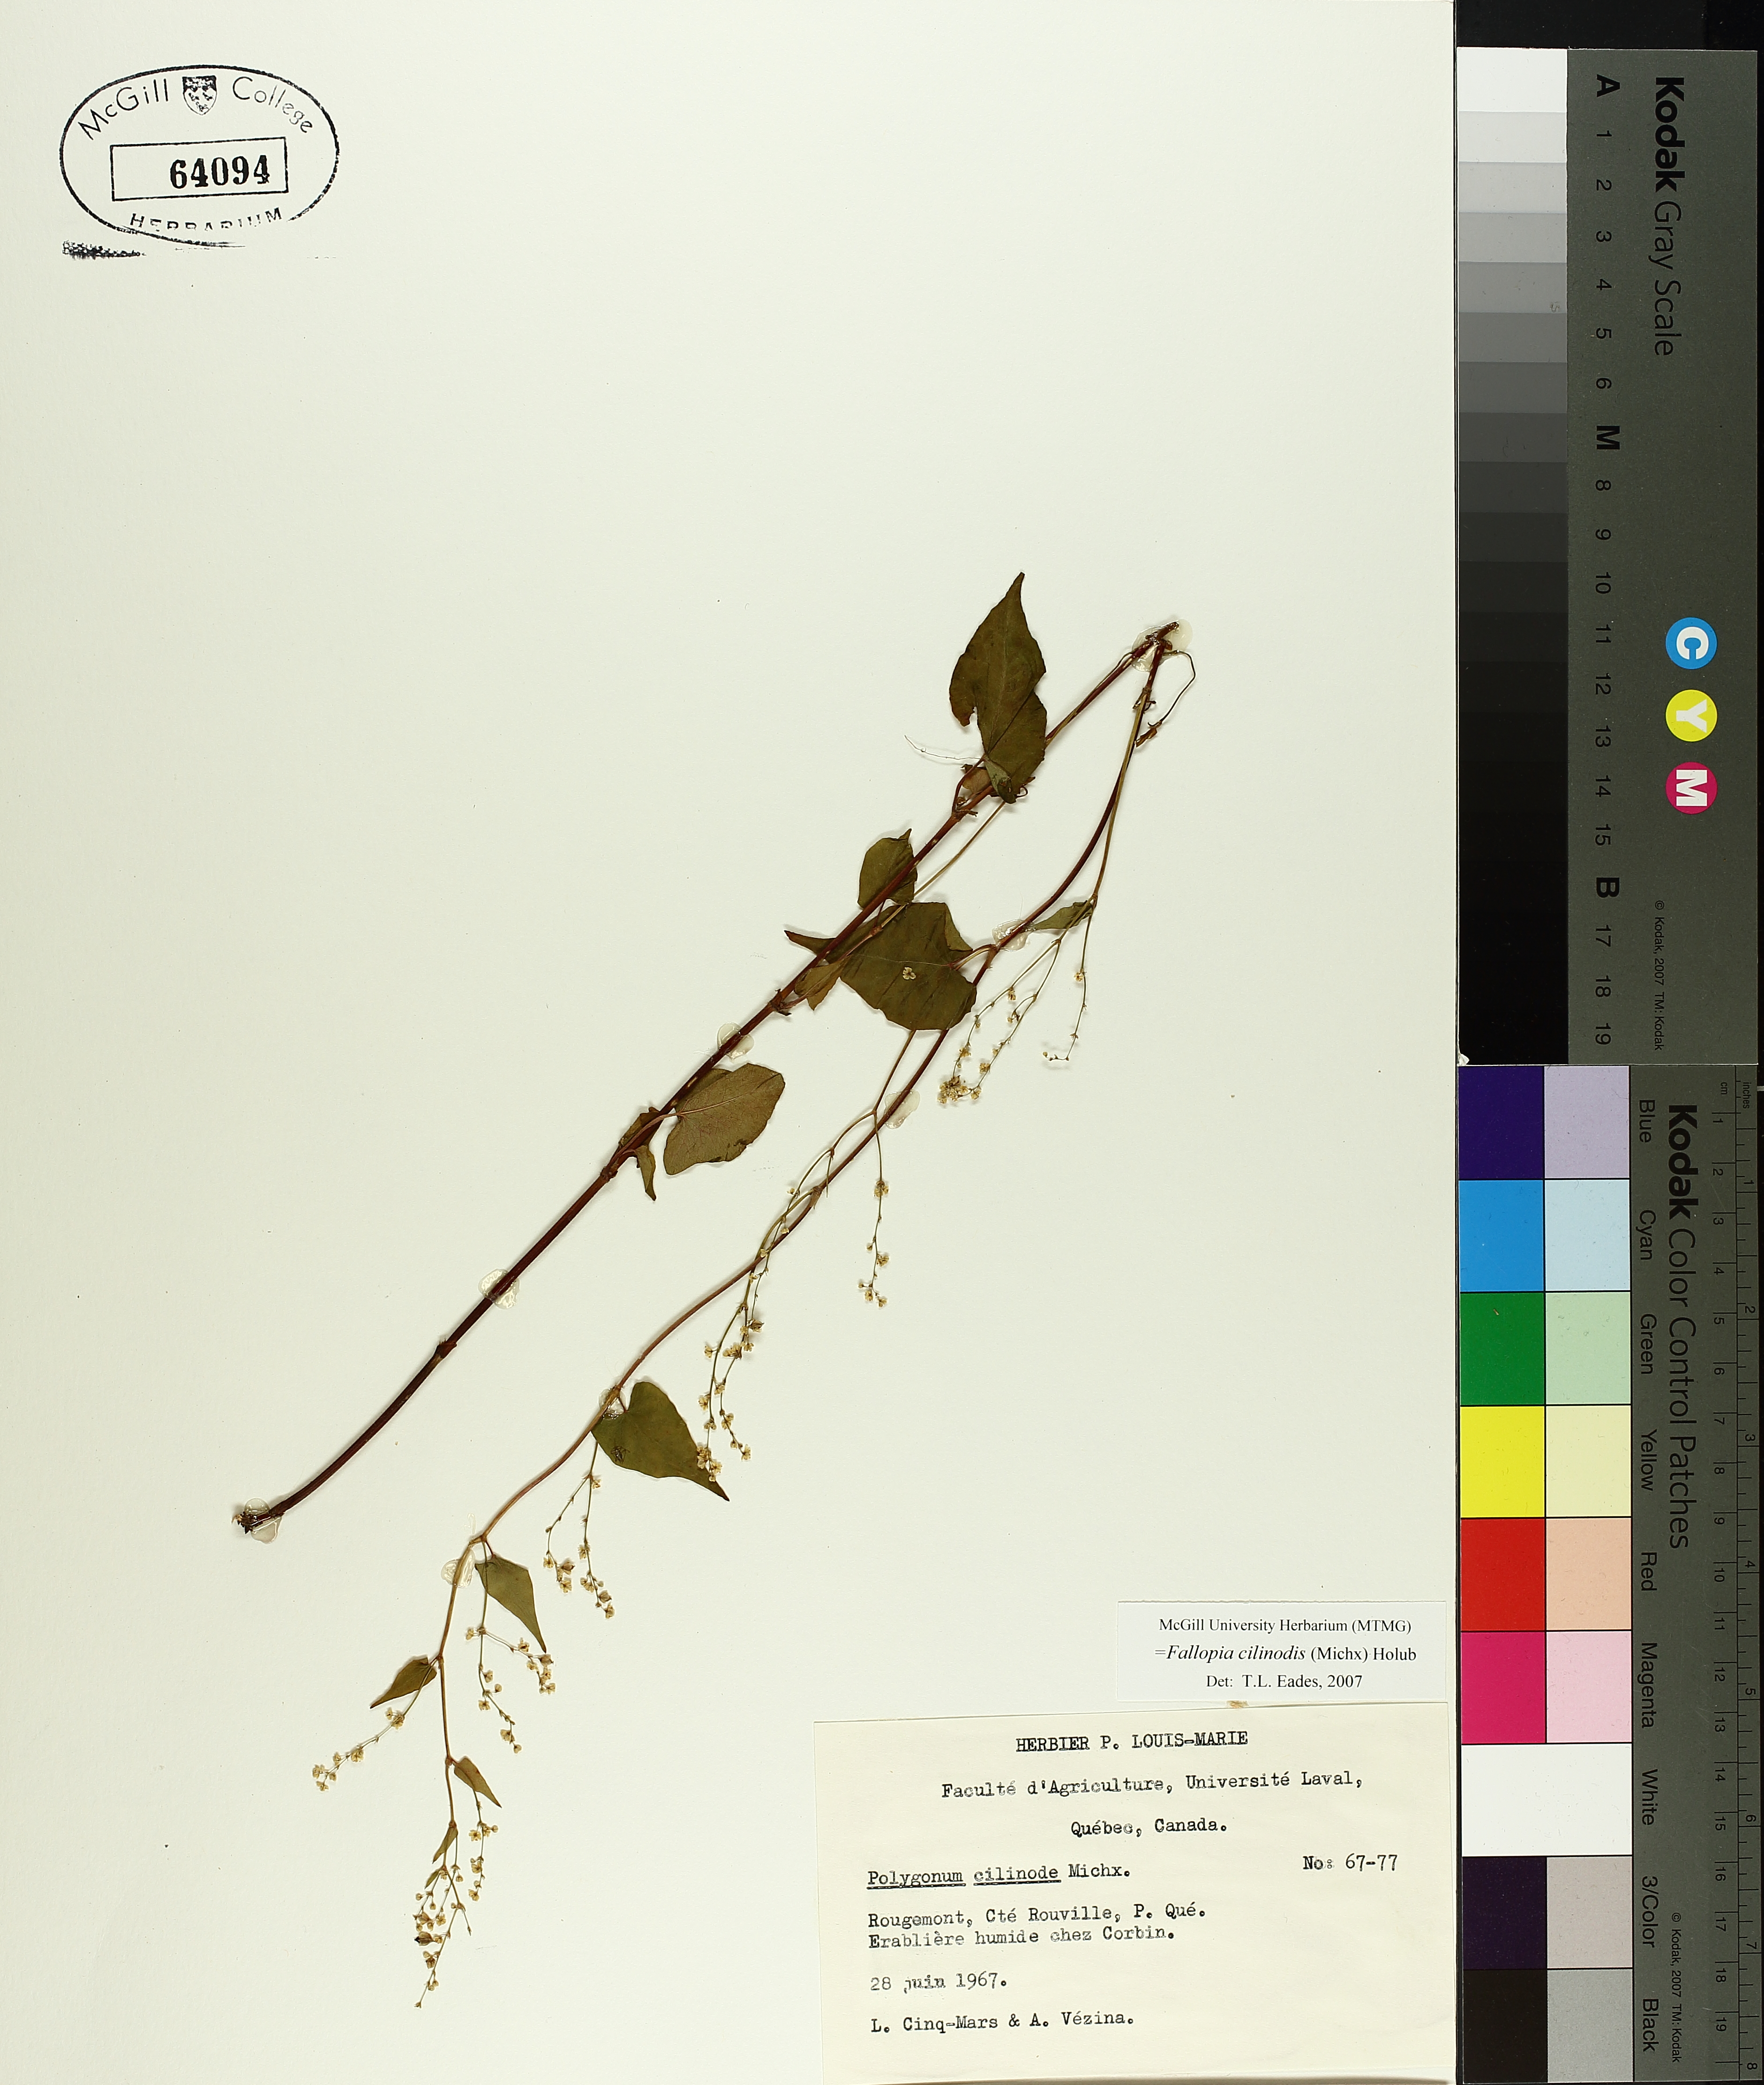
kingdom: Plantae
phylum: Tracheophyta
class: Magnoliopsida
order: Caryophyllales
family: Polygonaceae
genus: Parogonum
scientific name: Parogonum ciliinode
